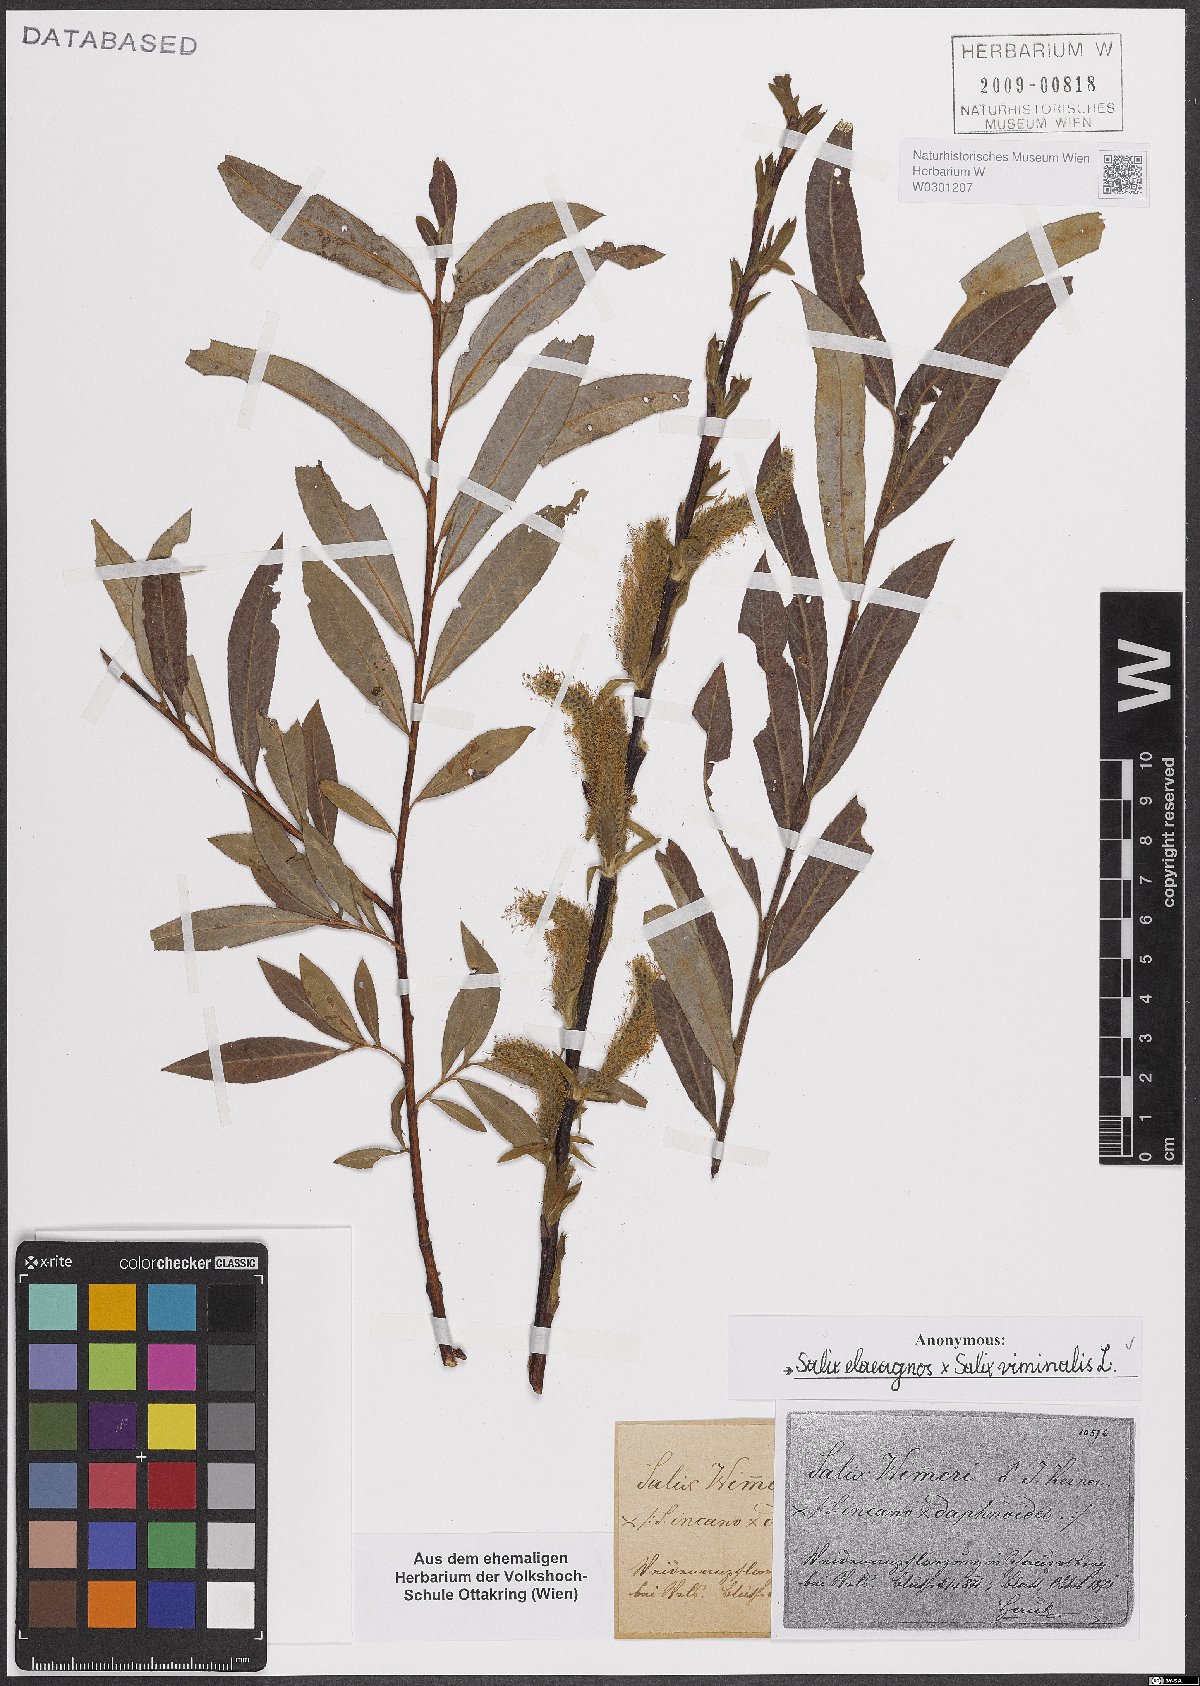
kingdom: Plantae
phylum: Tracheophyta
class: Magnoliopsida
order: Malpighiales
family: Salicaceae
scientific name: Salicaceae
